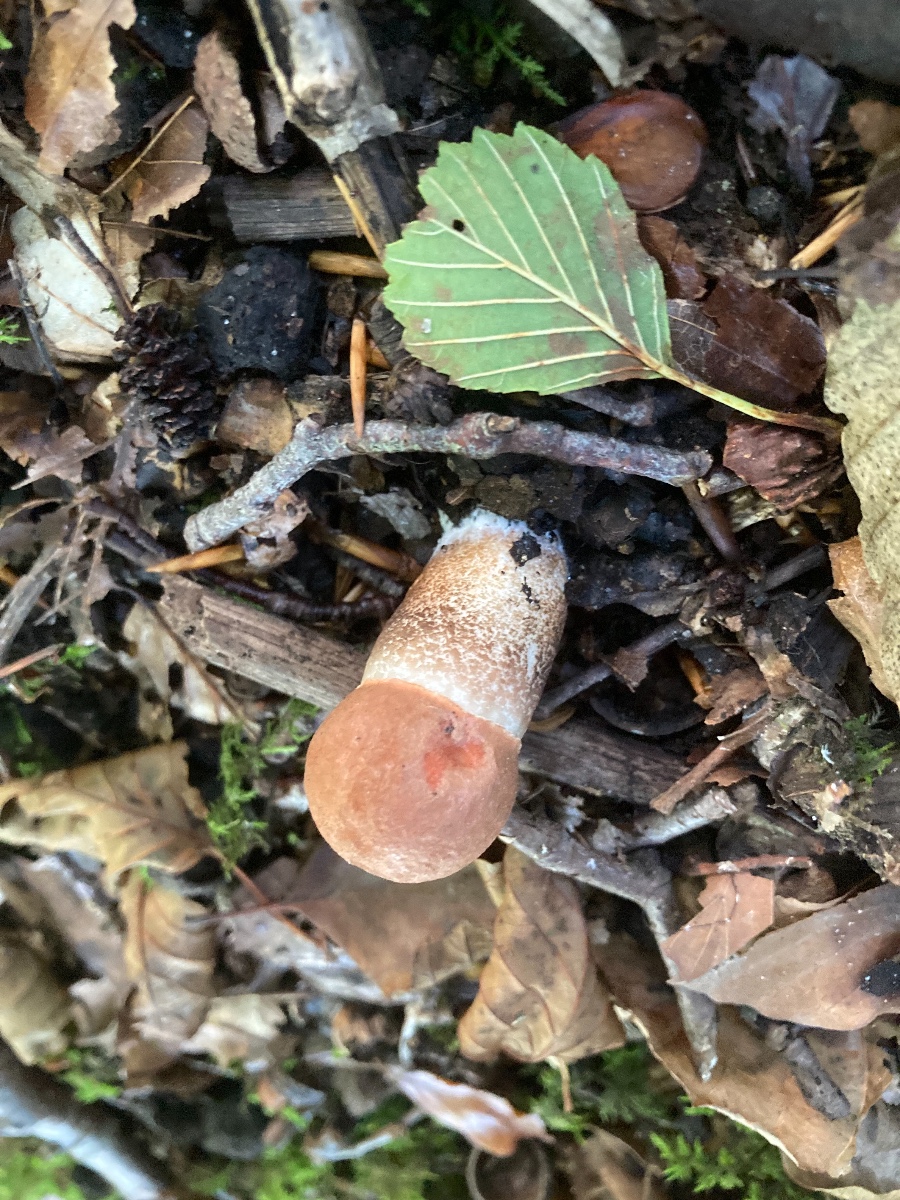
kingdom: Fungi
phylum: Basidiomycota
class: Agaricomycetes
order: Boletales
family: Boletaceae
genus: Leccinum
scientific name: Leccinum aurantiacum
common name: rustrød skælrørhat
